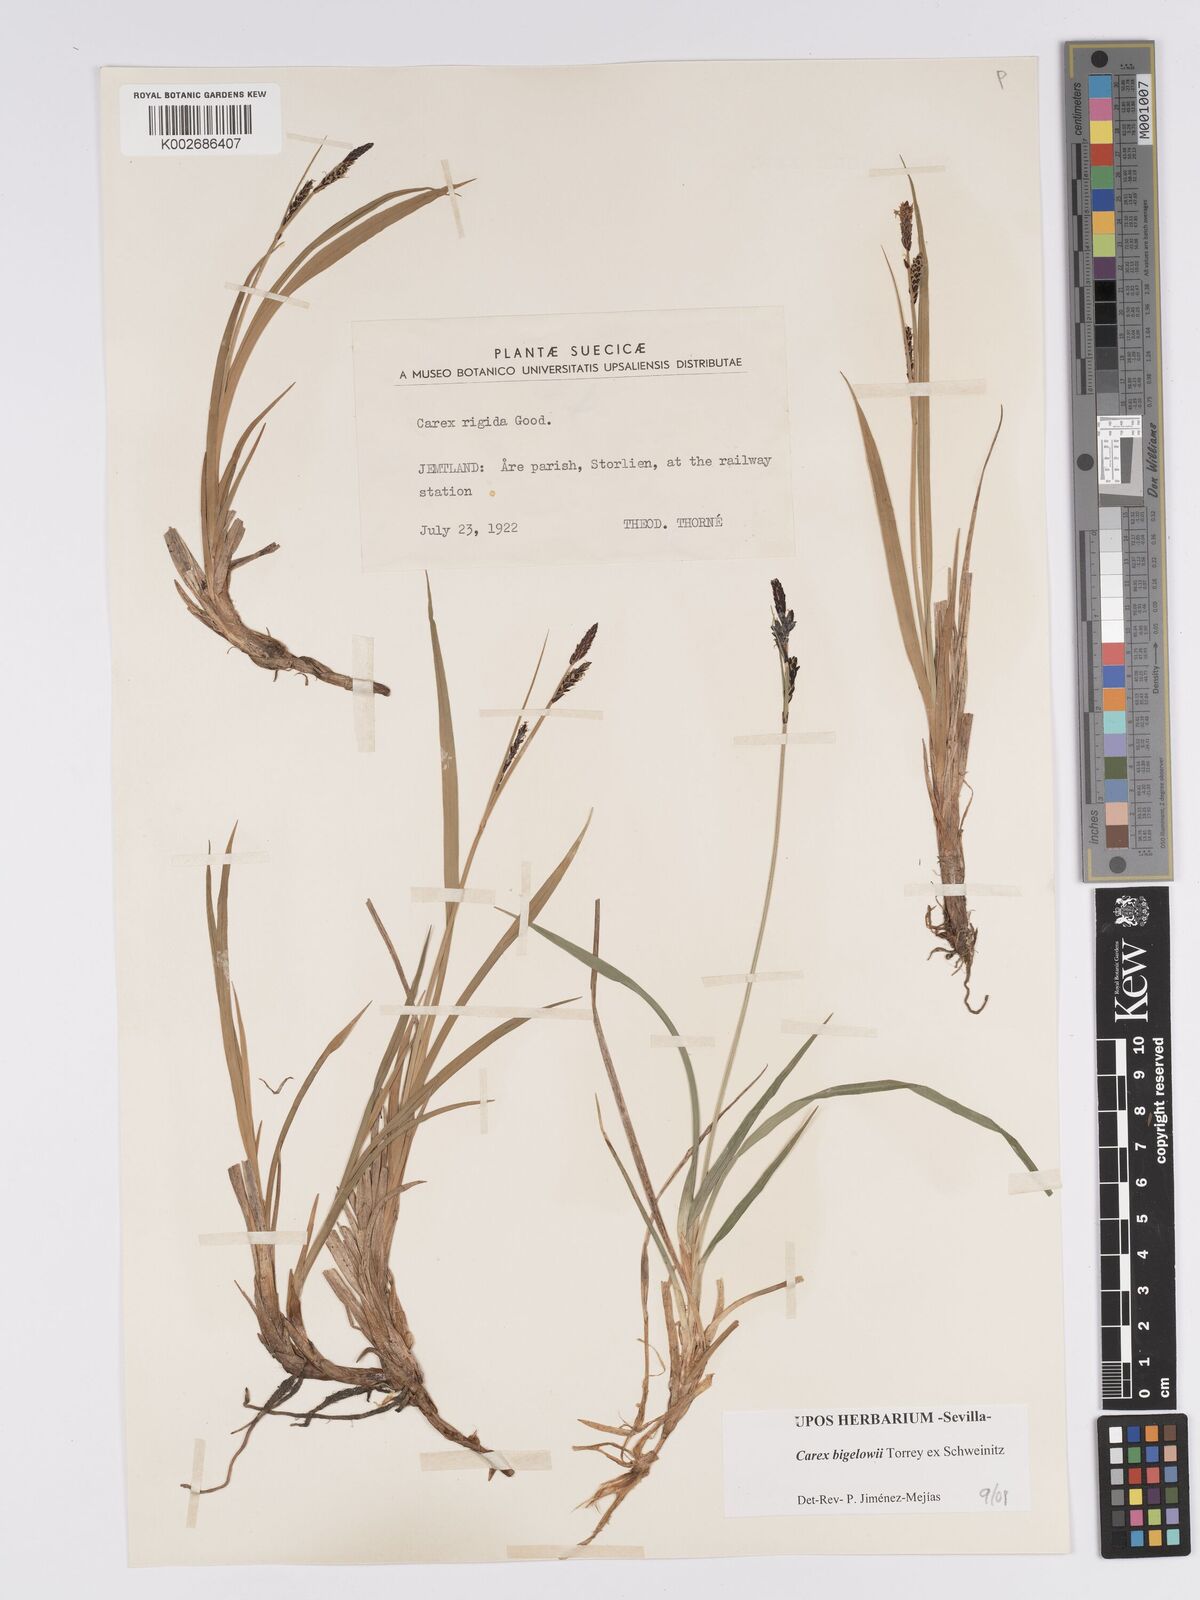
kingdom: Plantae
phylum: Tracheophyta
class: Liliopsida
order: Poales
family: Cyperaceae
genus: Carex
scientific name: Carex bigelowii
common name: Stiff sedge
